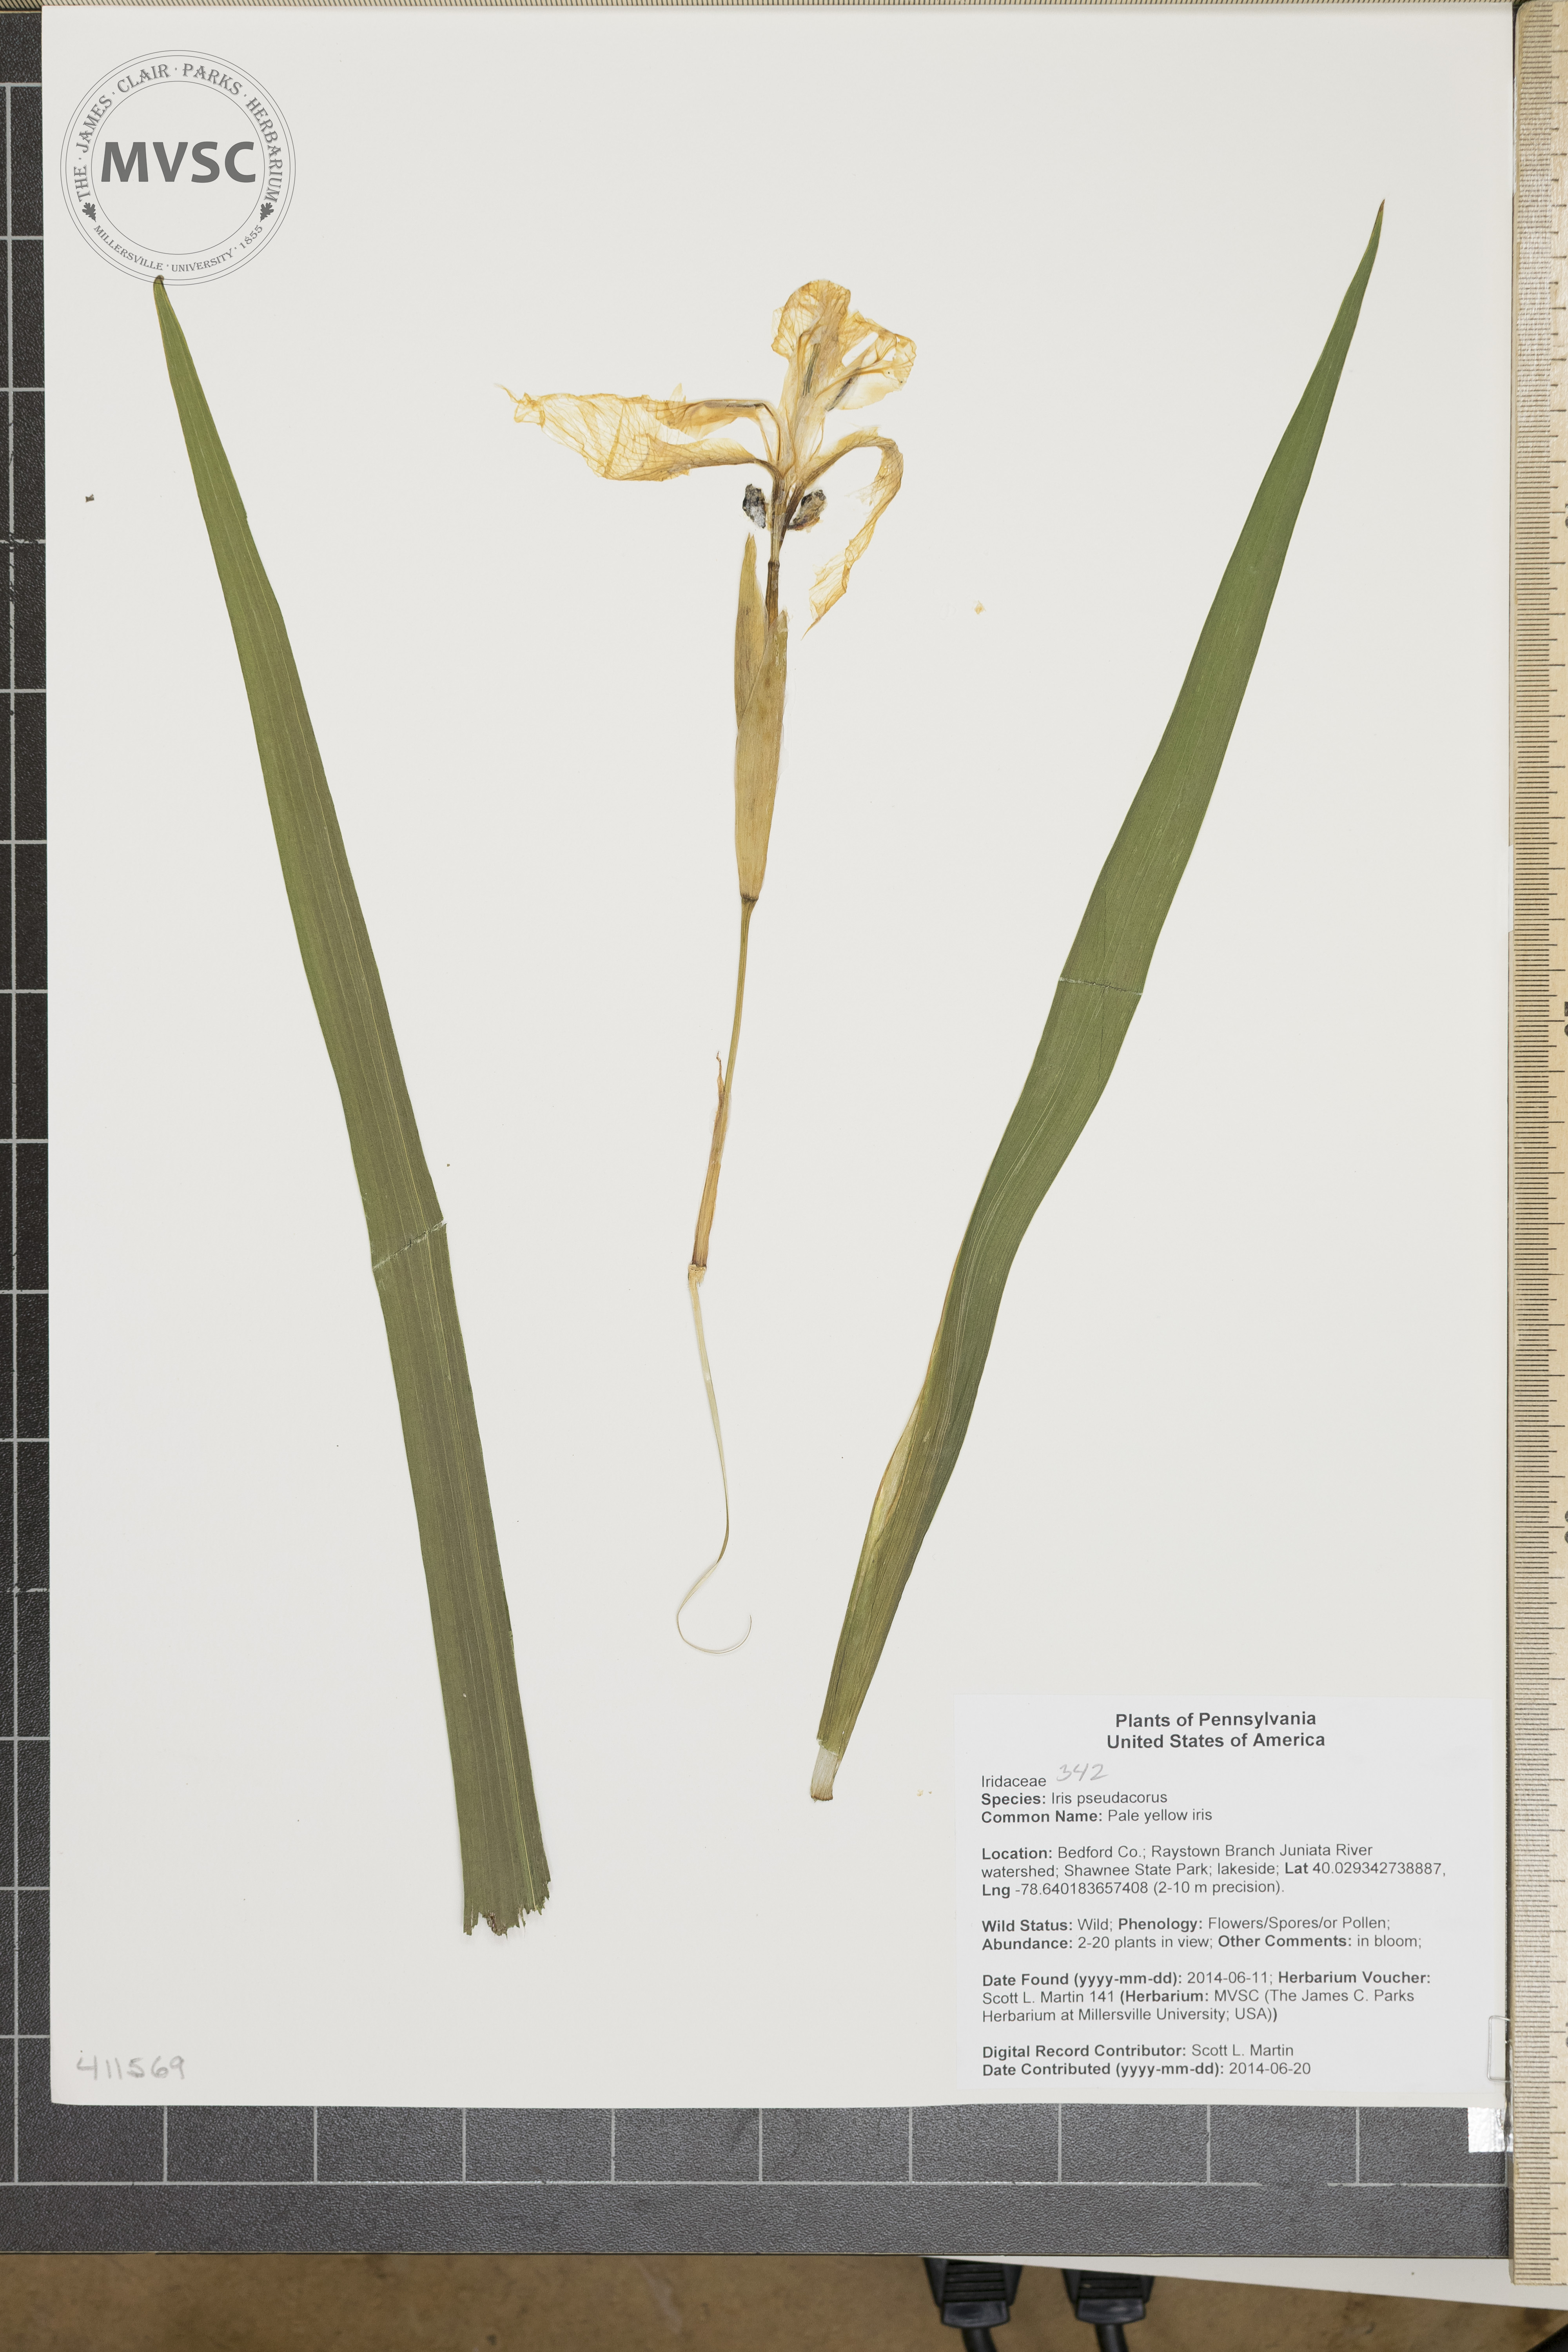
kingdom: Plantae
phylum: Tracheophyta
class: Liliopsida
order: Asparagales
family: Iridaceae
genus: Iris
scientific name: Iris pseudacorus
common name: Pale yellow iris
